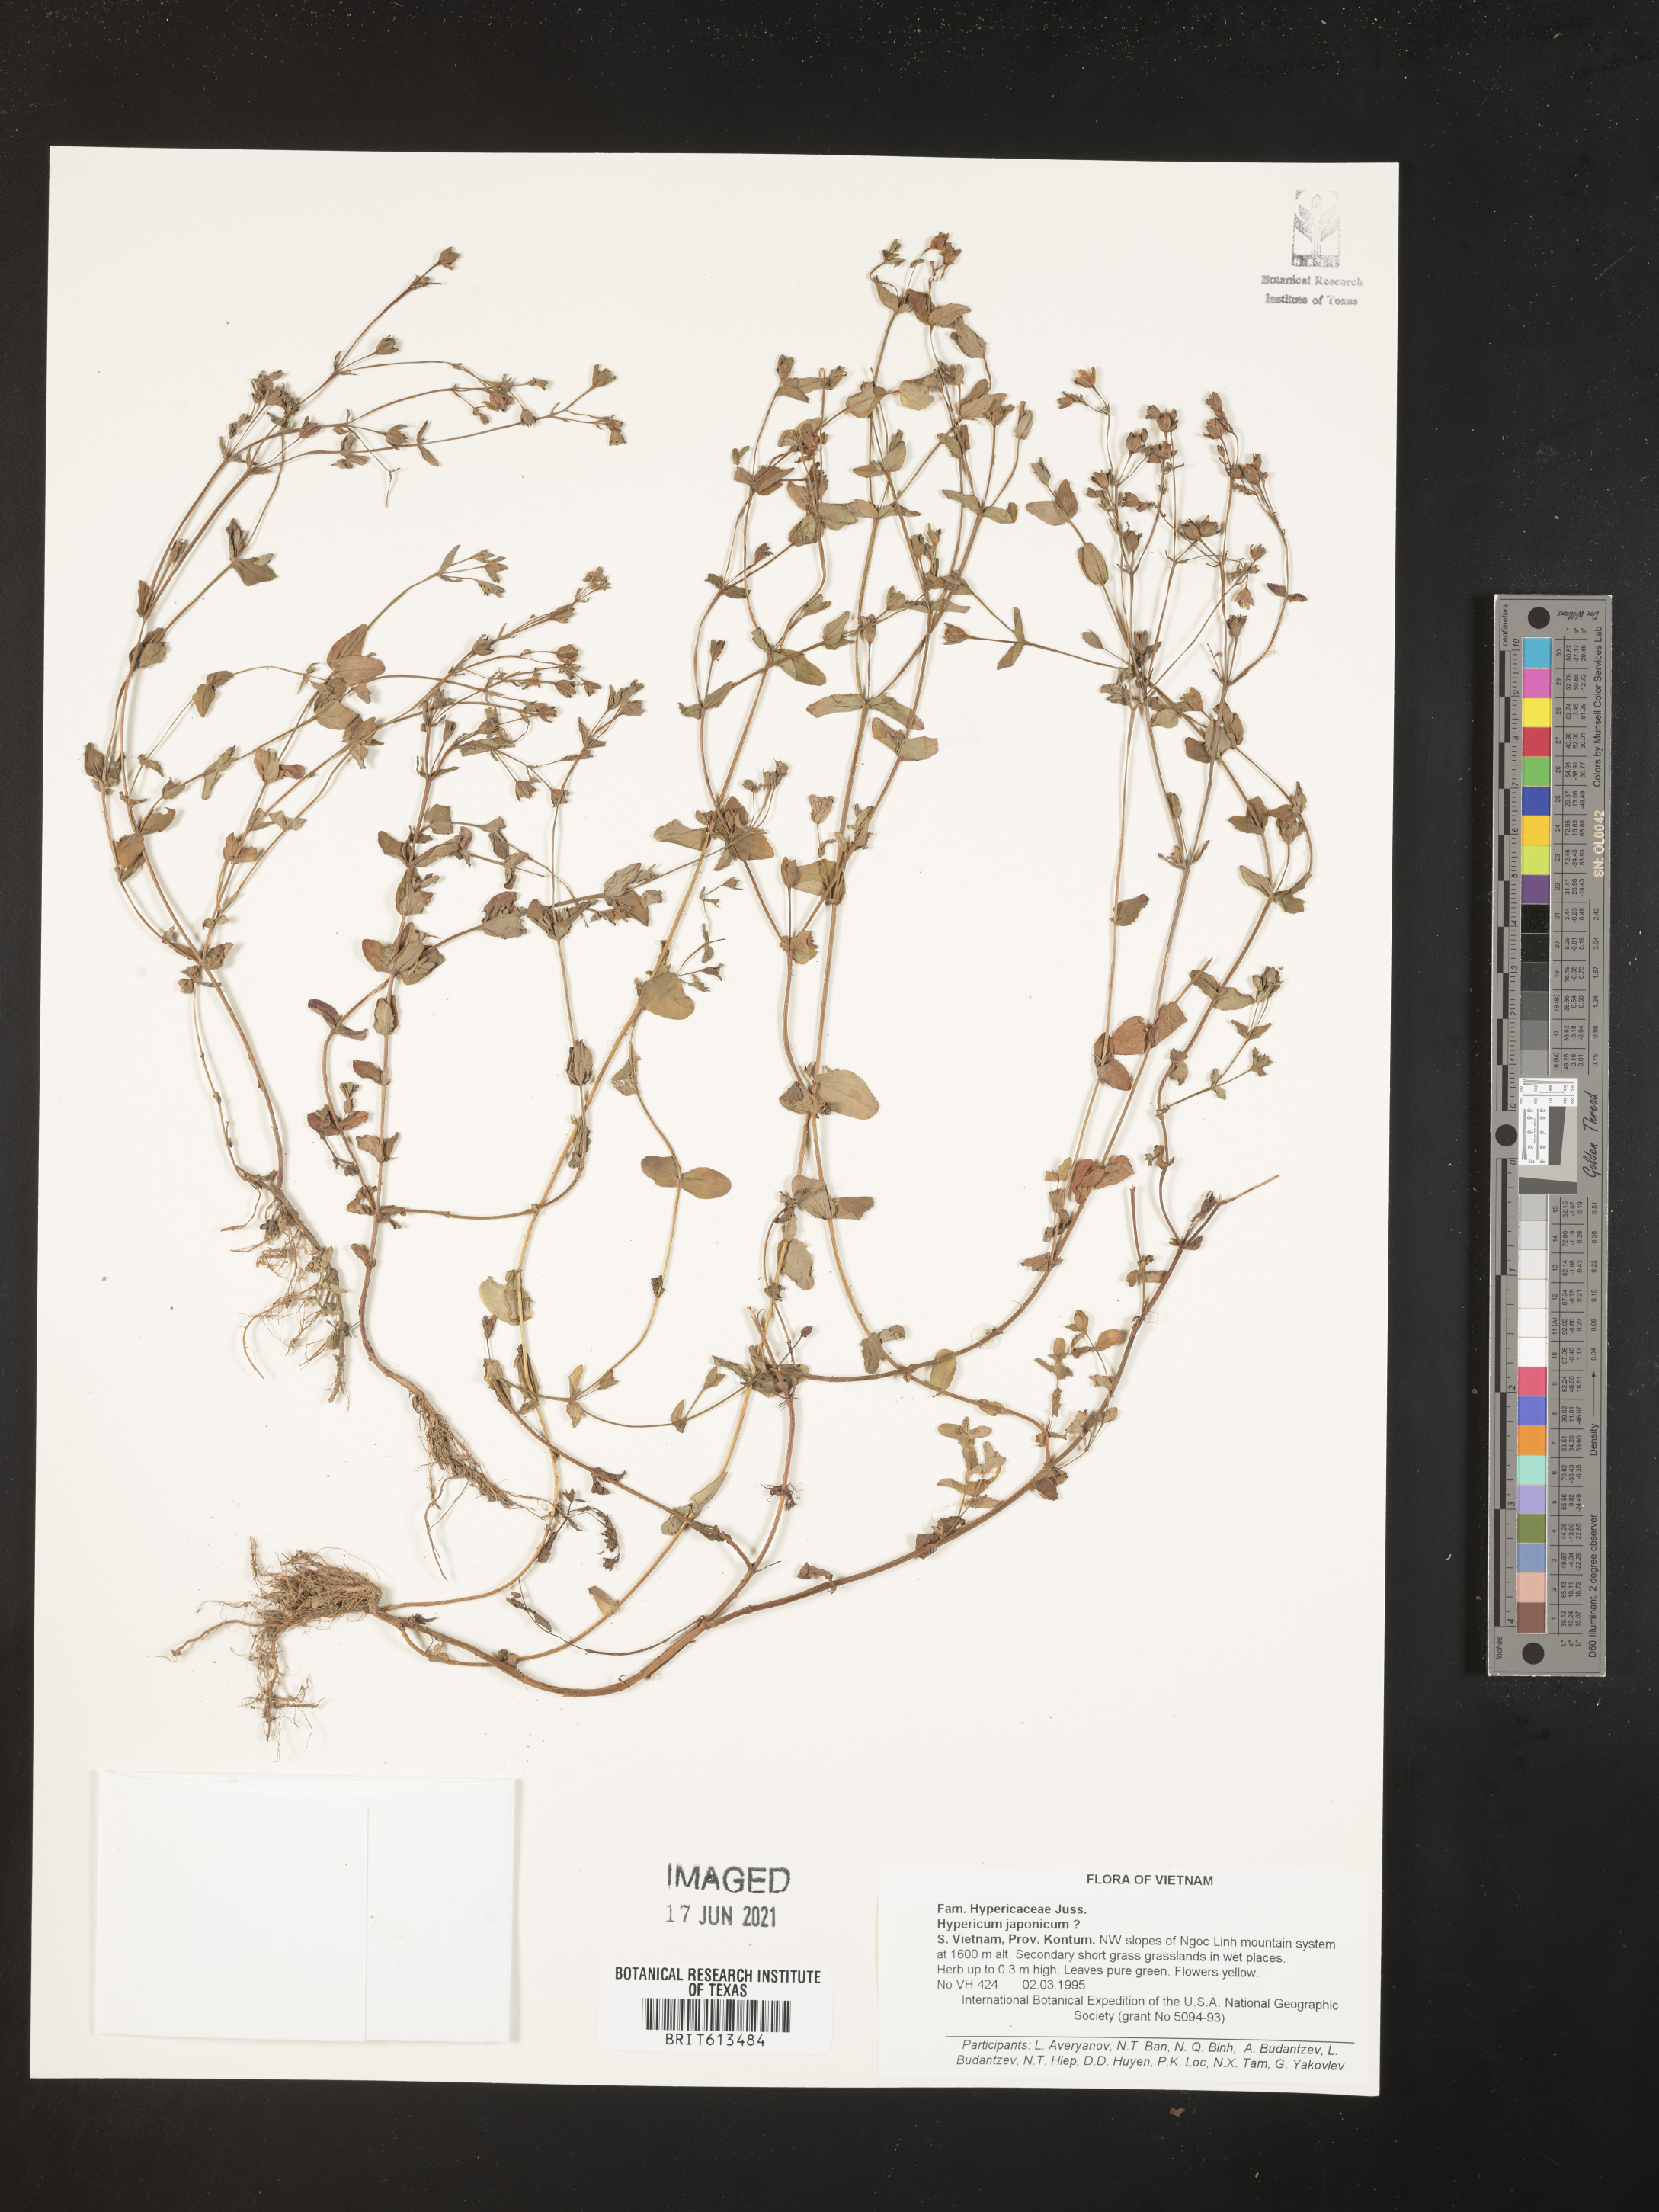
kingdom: Plantae
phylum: Tracheophyta
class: Magnoliopsida
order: Malpighiales
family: Hypericaceae
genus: Hypericum
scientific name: Hypericum japonicum
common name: Matted st. john's-wort
